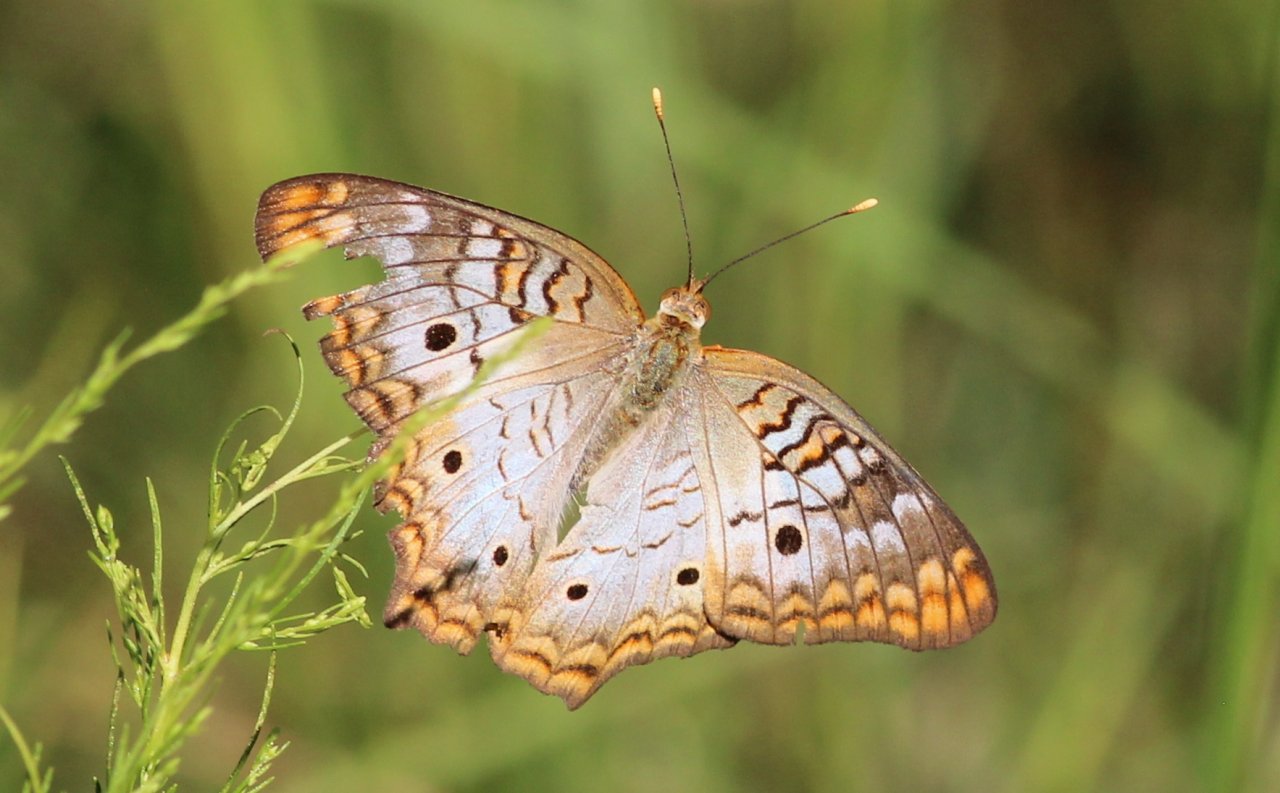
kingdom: Animalia
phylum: Arthropoda
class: Insecta
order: Lepidoptera
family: Nymphalidae
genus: Anartia
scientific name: Anartia jatrophae
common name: White Peacock
